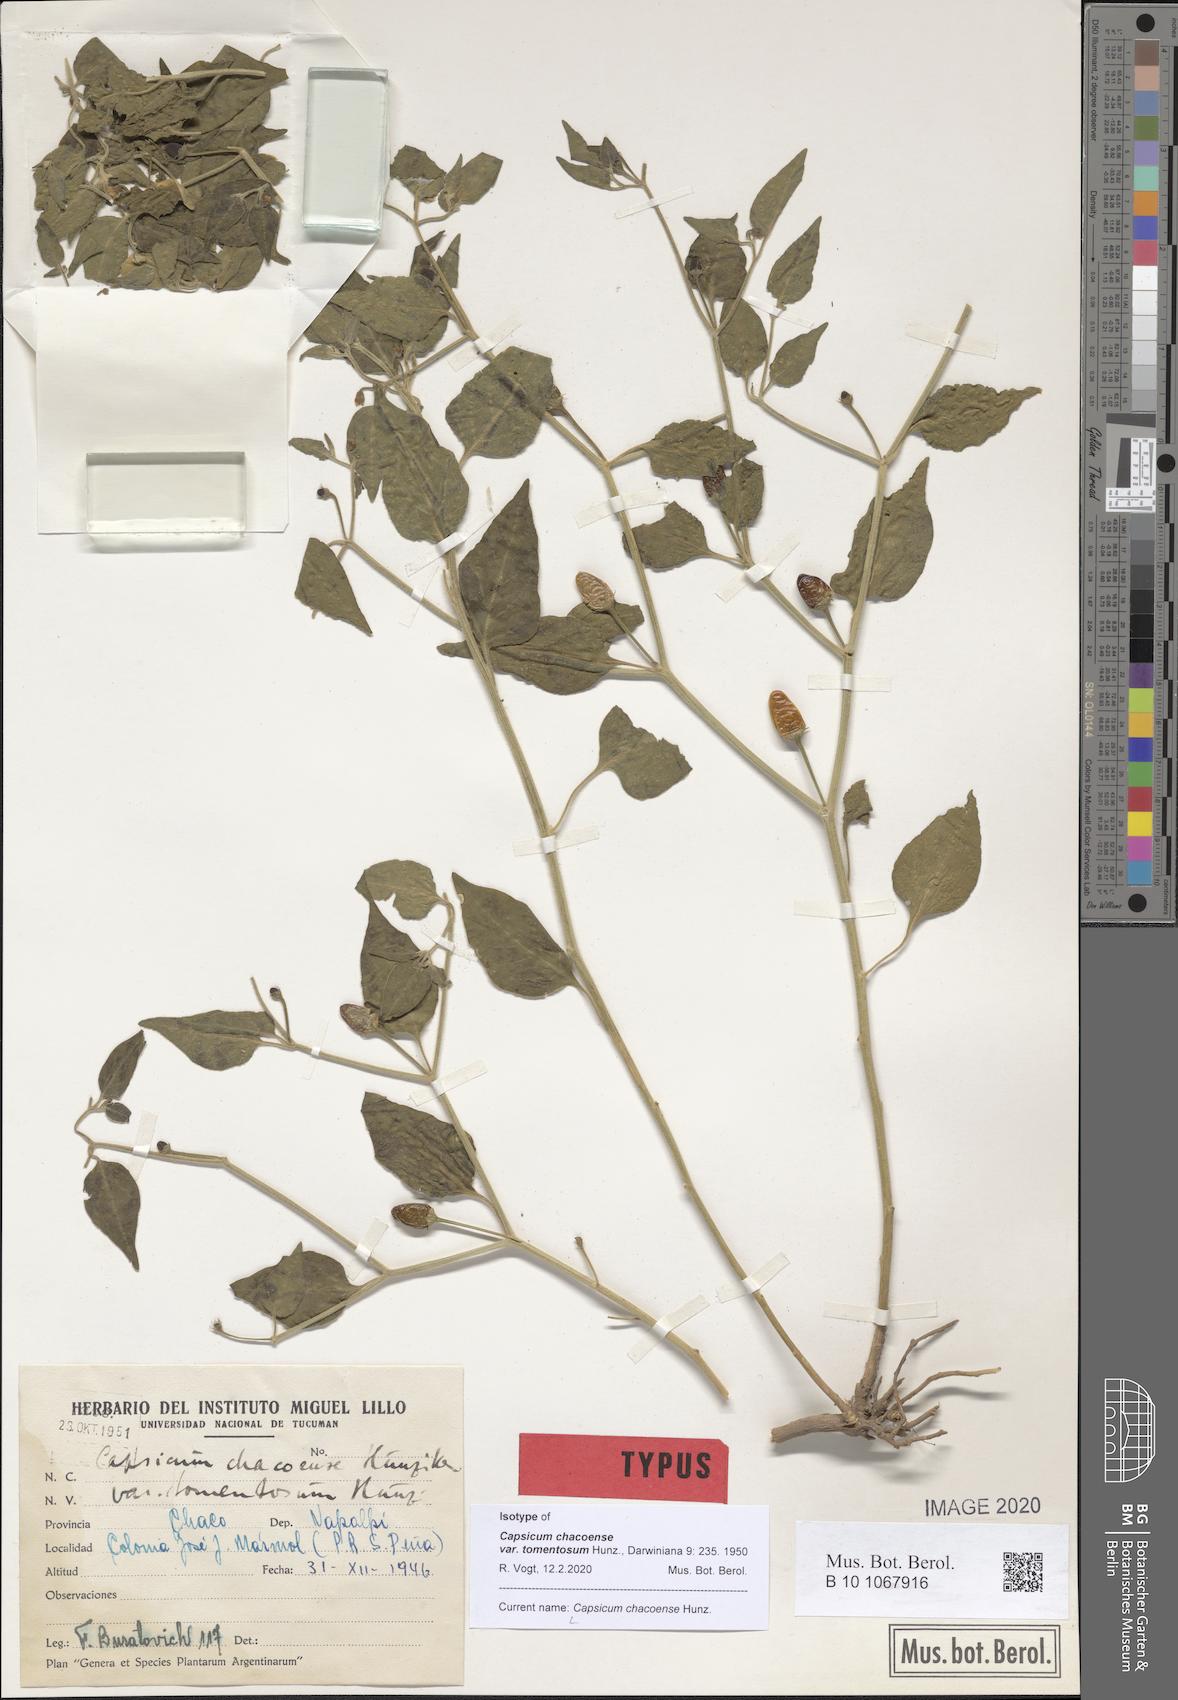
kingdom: Plantae
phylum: Tracheophyta
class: Magnoliopsida
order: Solanales
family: Solanaceae
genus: Capsicum
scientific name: Capsicum chacoense
